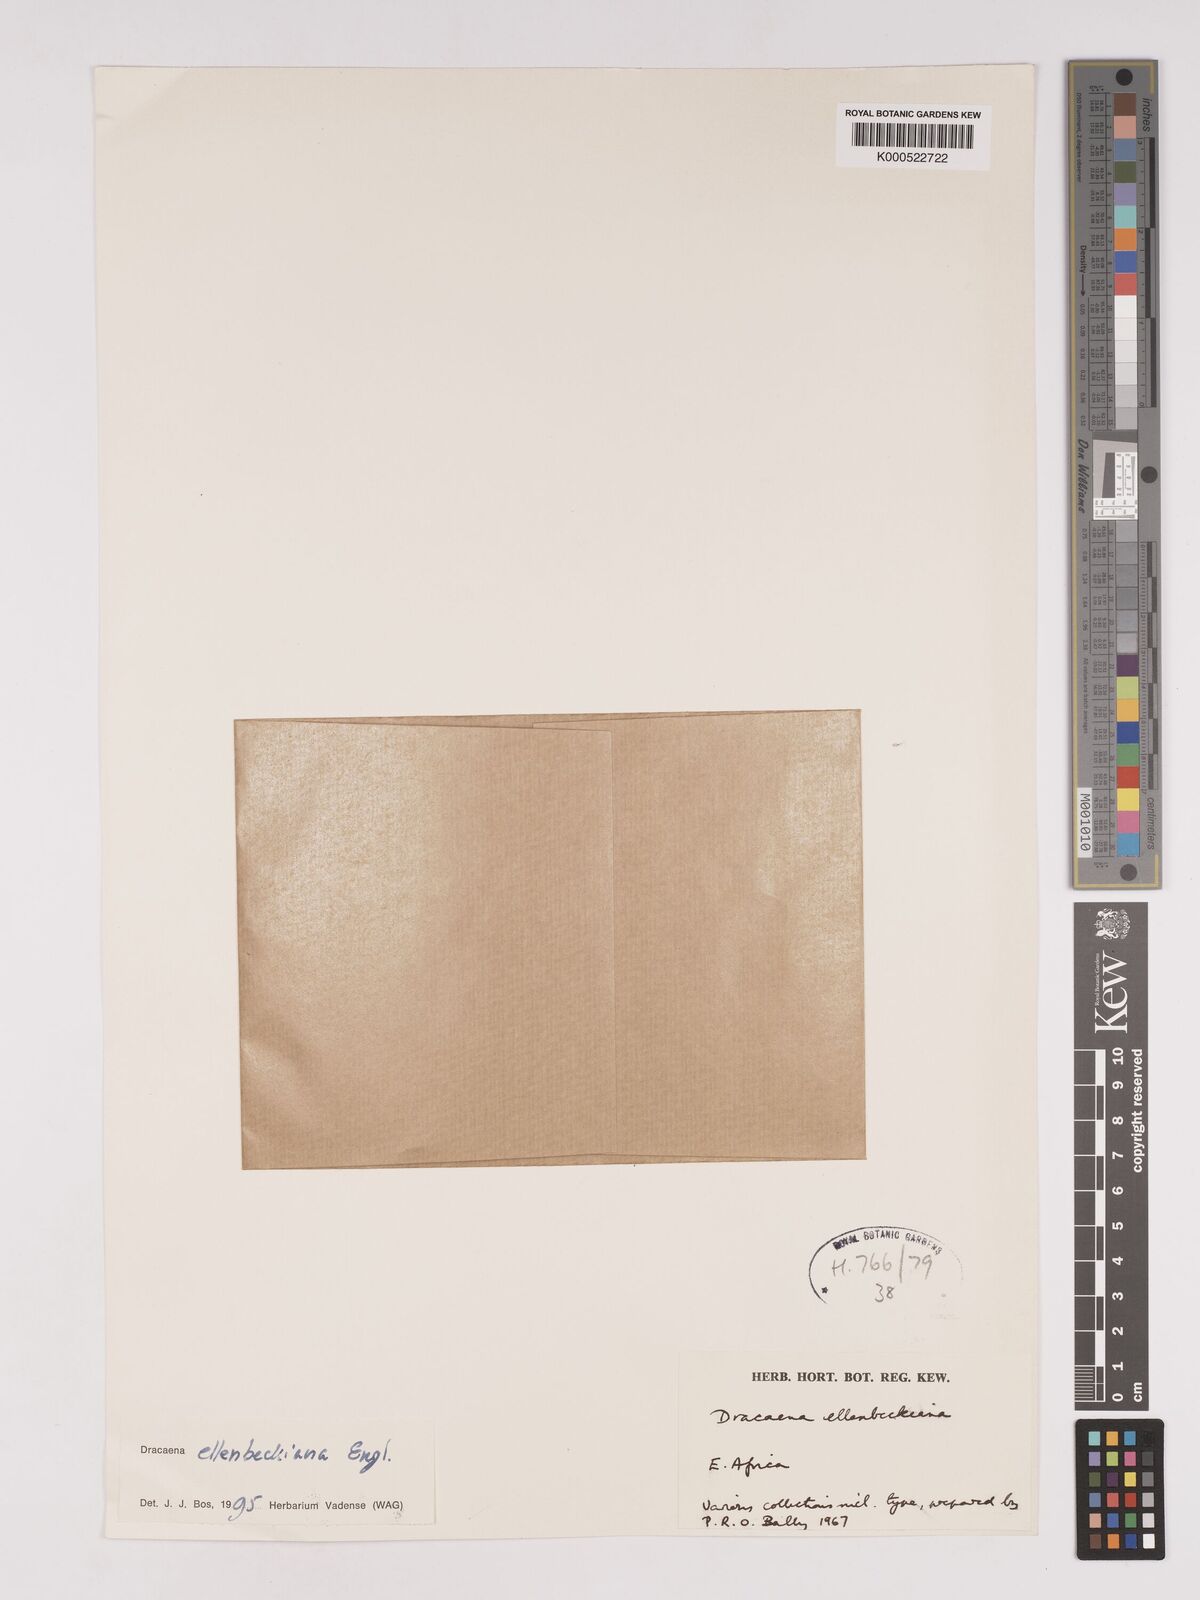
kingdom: Plantae
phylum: Tracheophyta
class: Liliopsida
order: Asparagales
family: Asparagaceae
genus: Dracaena
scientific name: Dracaena elliptica
